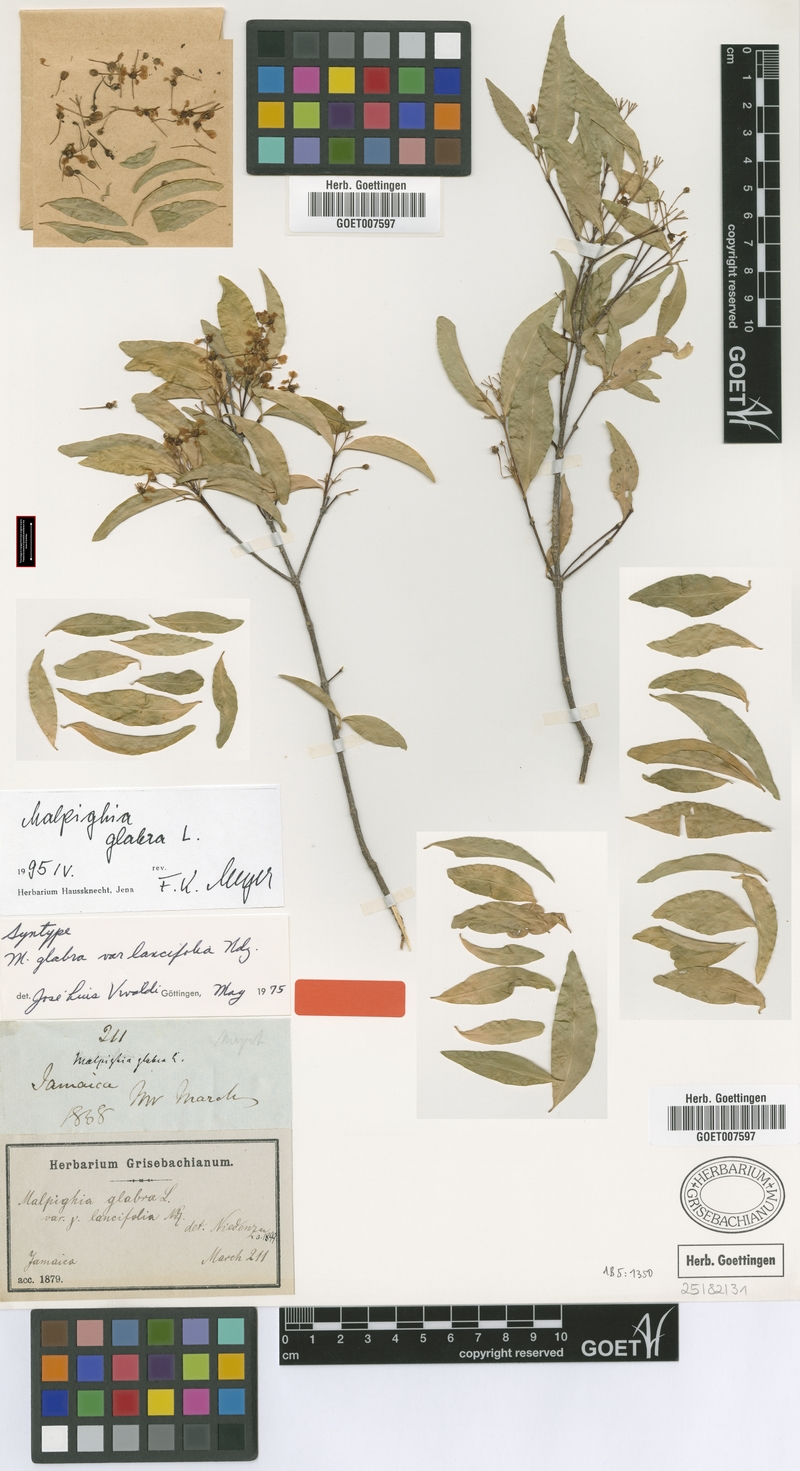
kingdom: Plantae
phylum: Tracheophyta
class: Magnoliopsida
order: Malpighiales
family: Malpighiaceae
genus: Malpighia
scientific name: Malpighia glabra
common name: Barbados cherry
